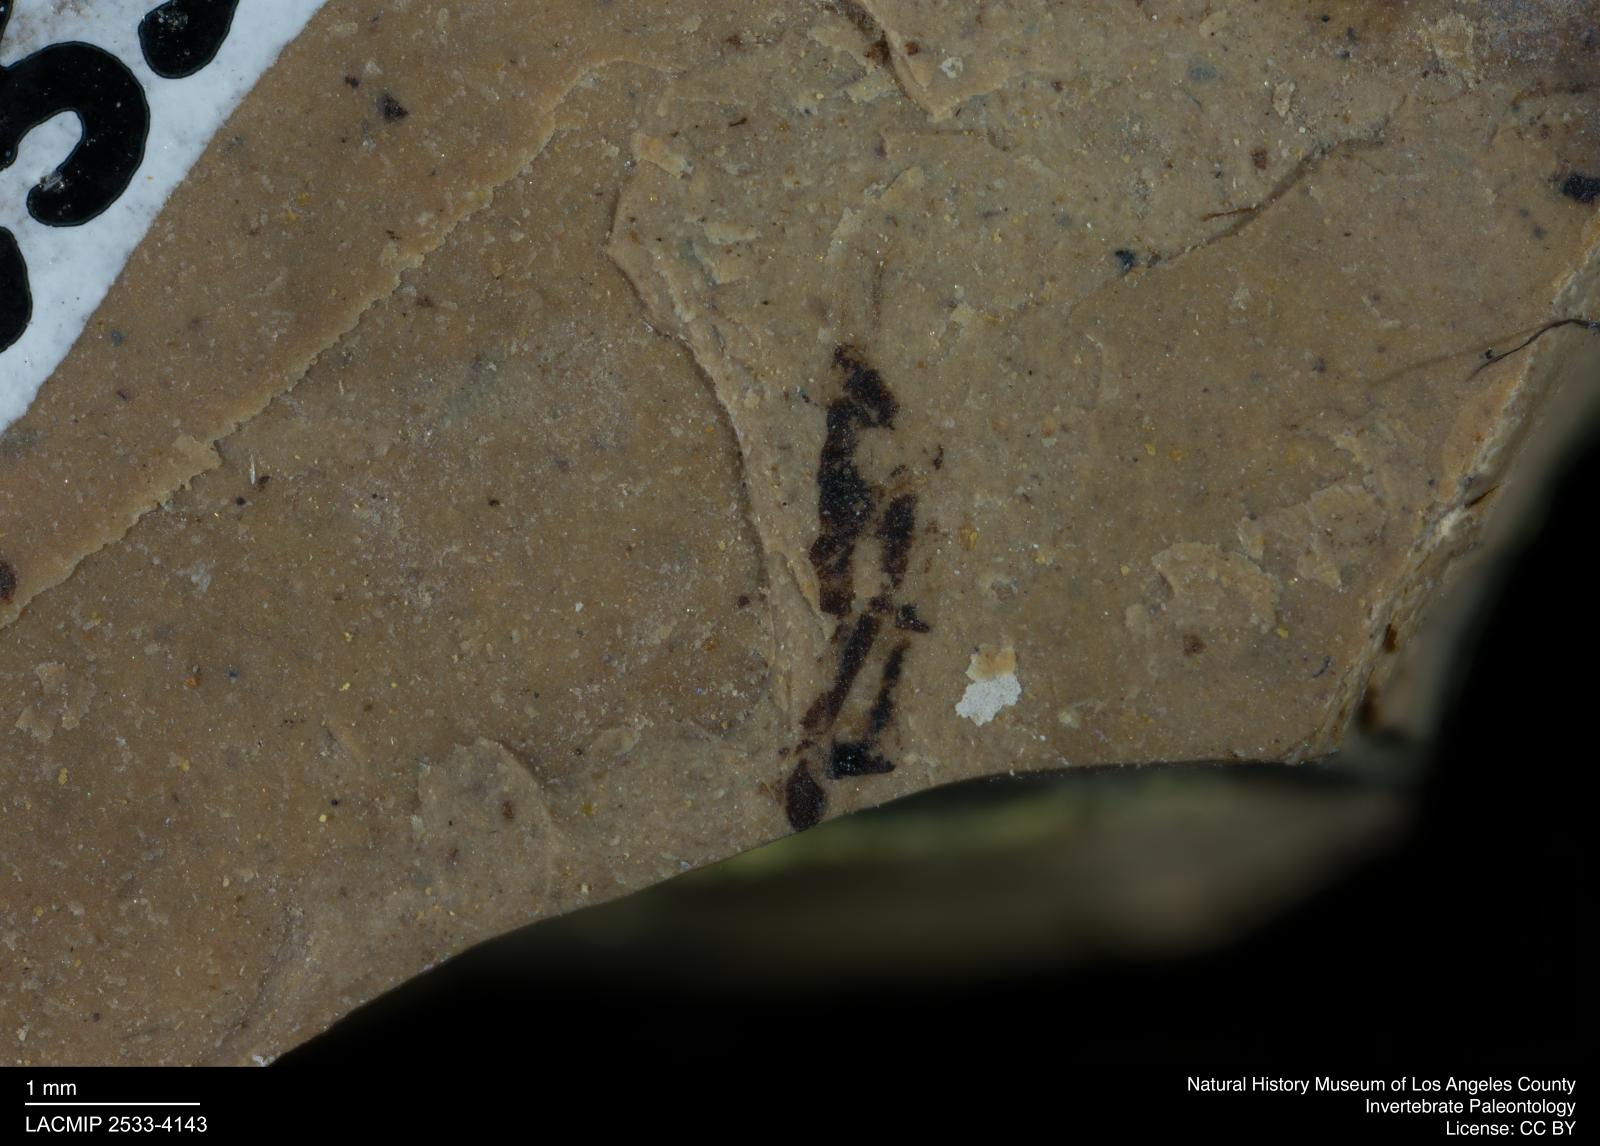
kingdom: Animalia
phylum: Arthropoda
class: Insecta
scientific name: Insecta
